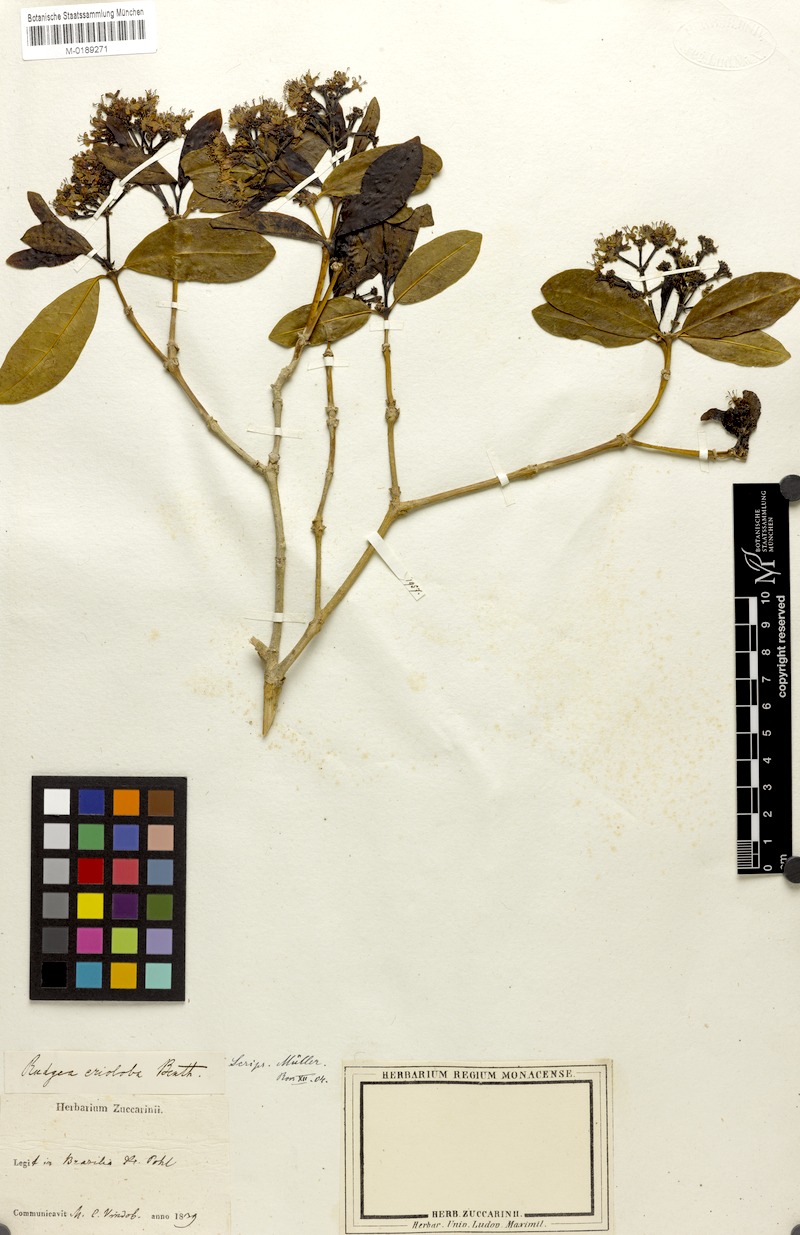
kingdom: Plantae
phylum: Tracheophyta
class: Magnoliopsida
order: Gentianales
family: Rubiaceae
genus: Rudgea
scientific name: Rudgea erioloba
